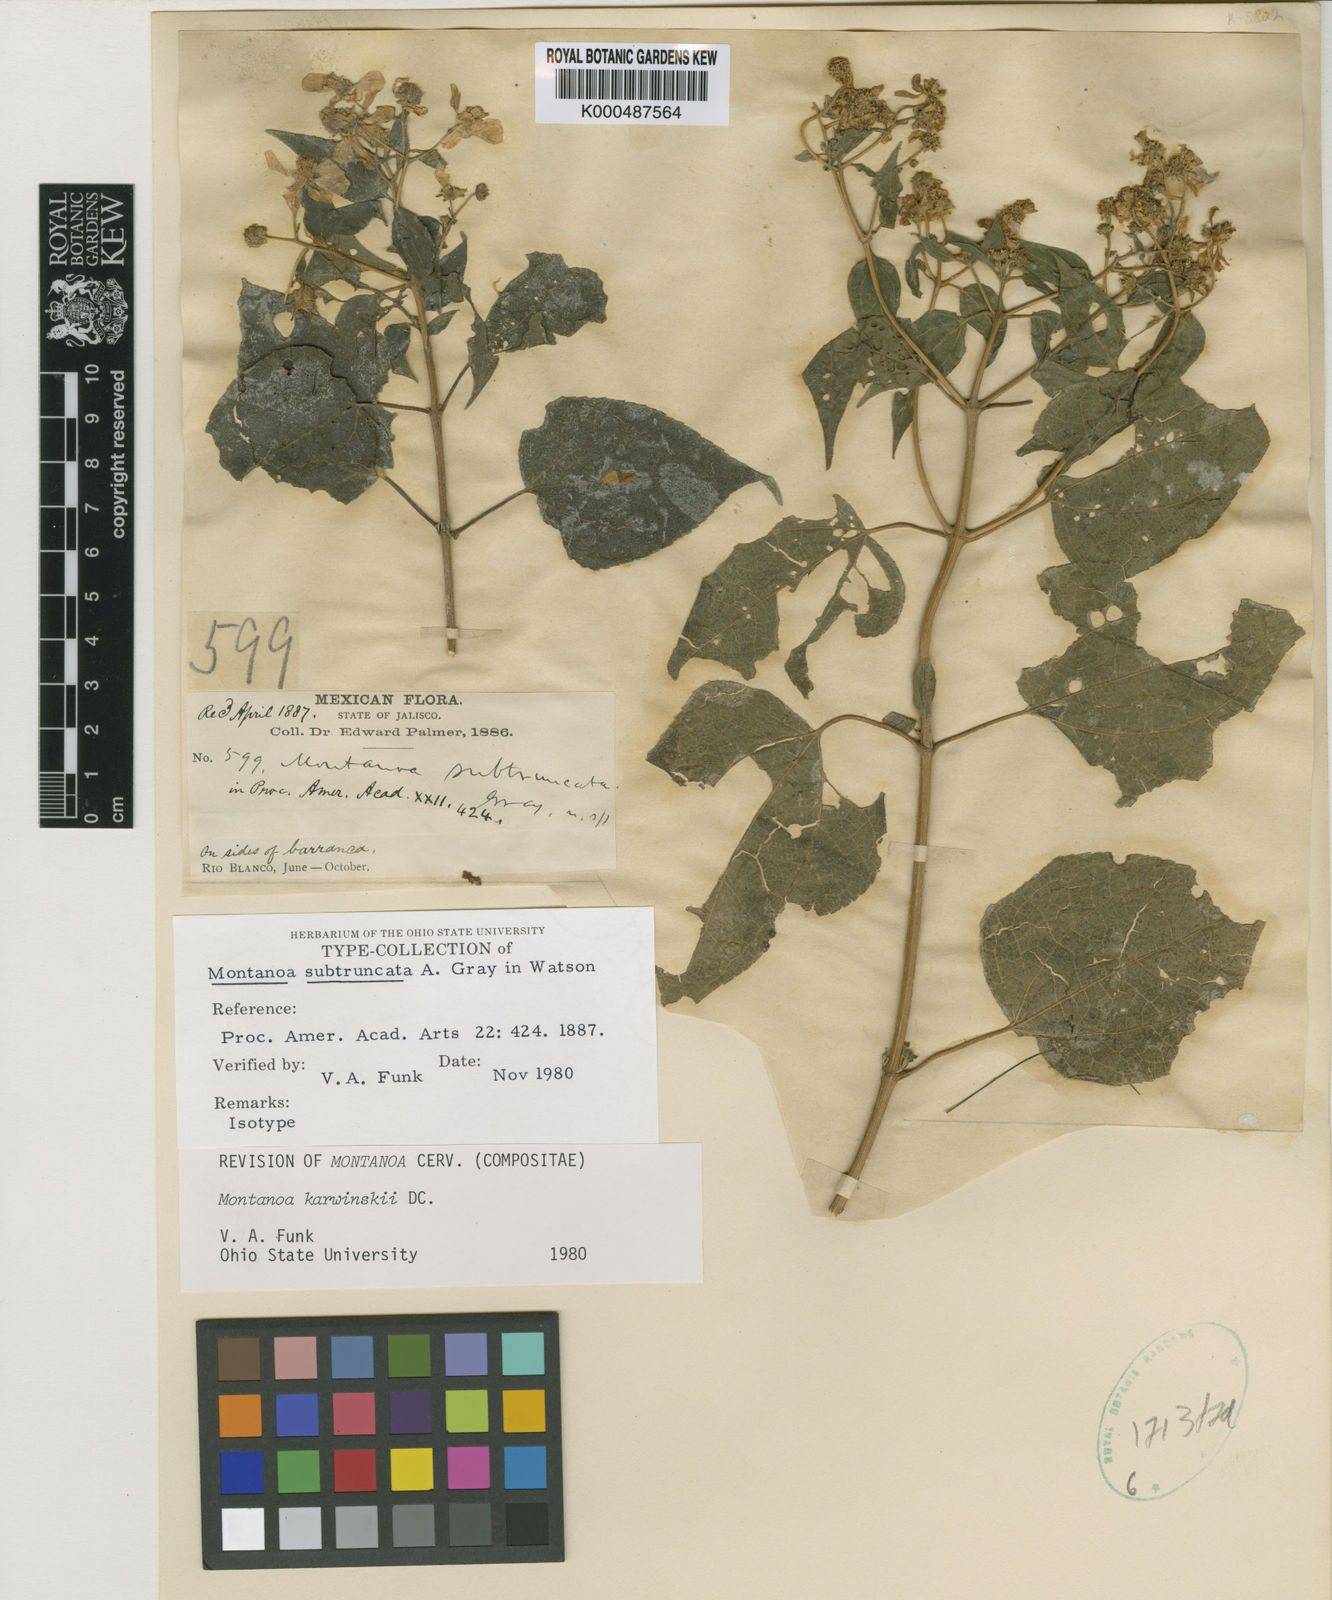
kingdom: Plantae
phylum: Tracheophyta
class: Magnoliopsida
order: Asterales
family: Asteraceae
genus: Montanoa
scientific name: Montanoa karwinskii
